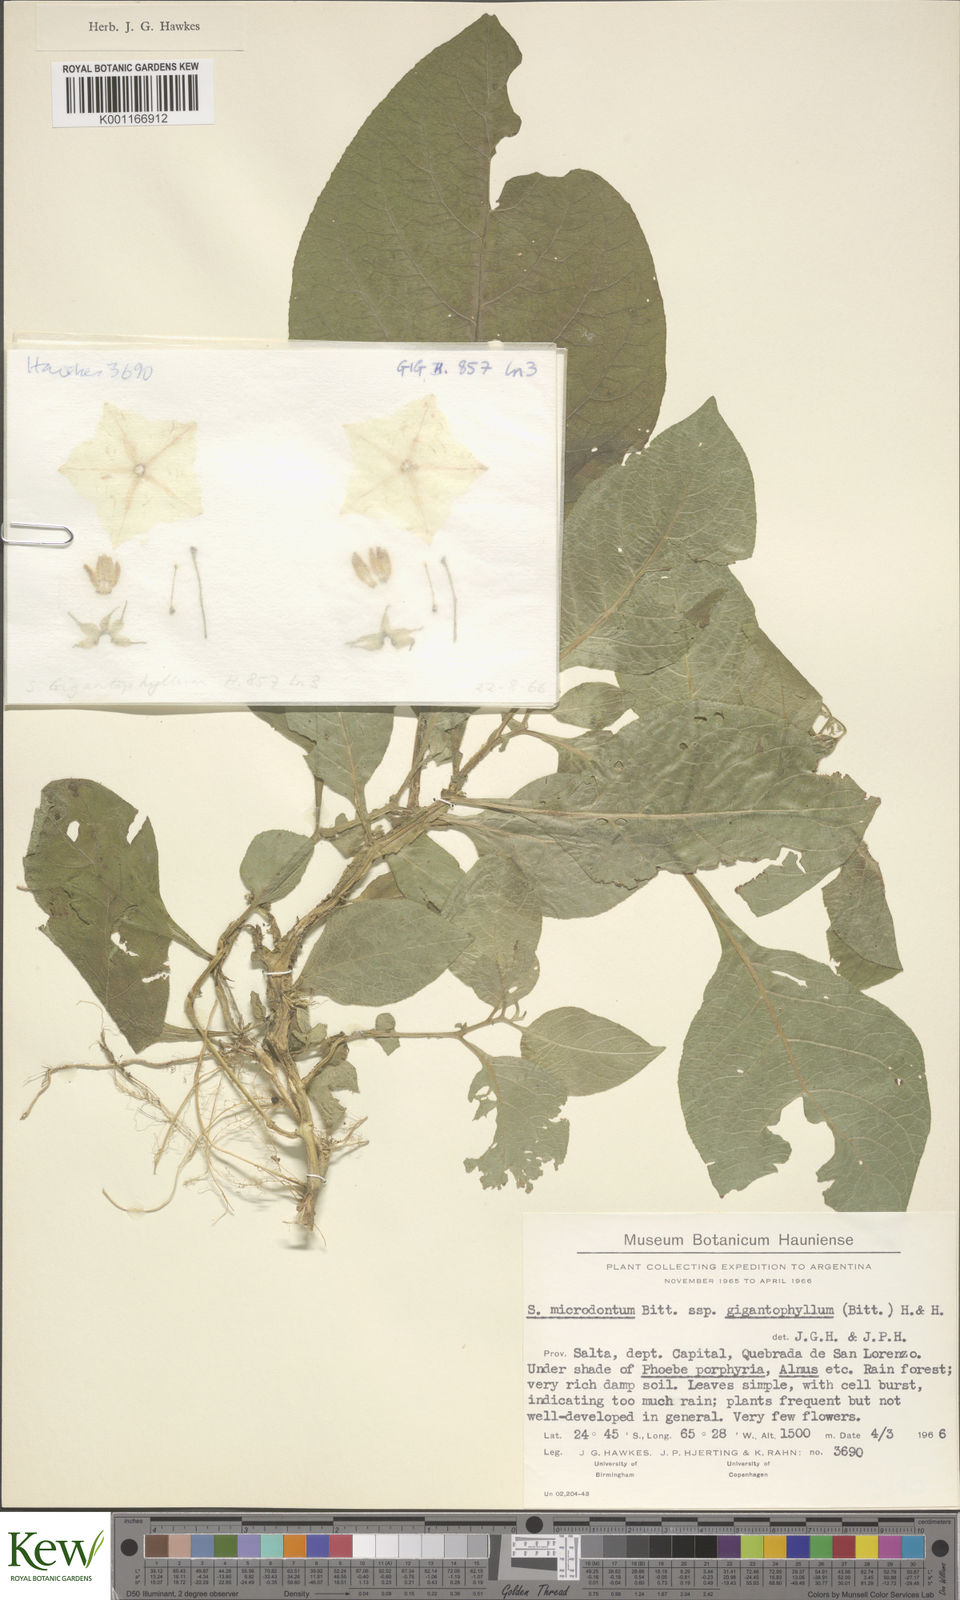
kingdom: Plantae
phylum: Tracheophyta
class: Magnoliopsida
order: Solanales
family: Solanaceae
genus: Solanum
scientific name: Solanum microdontum
